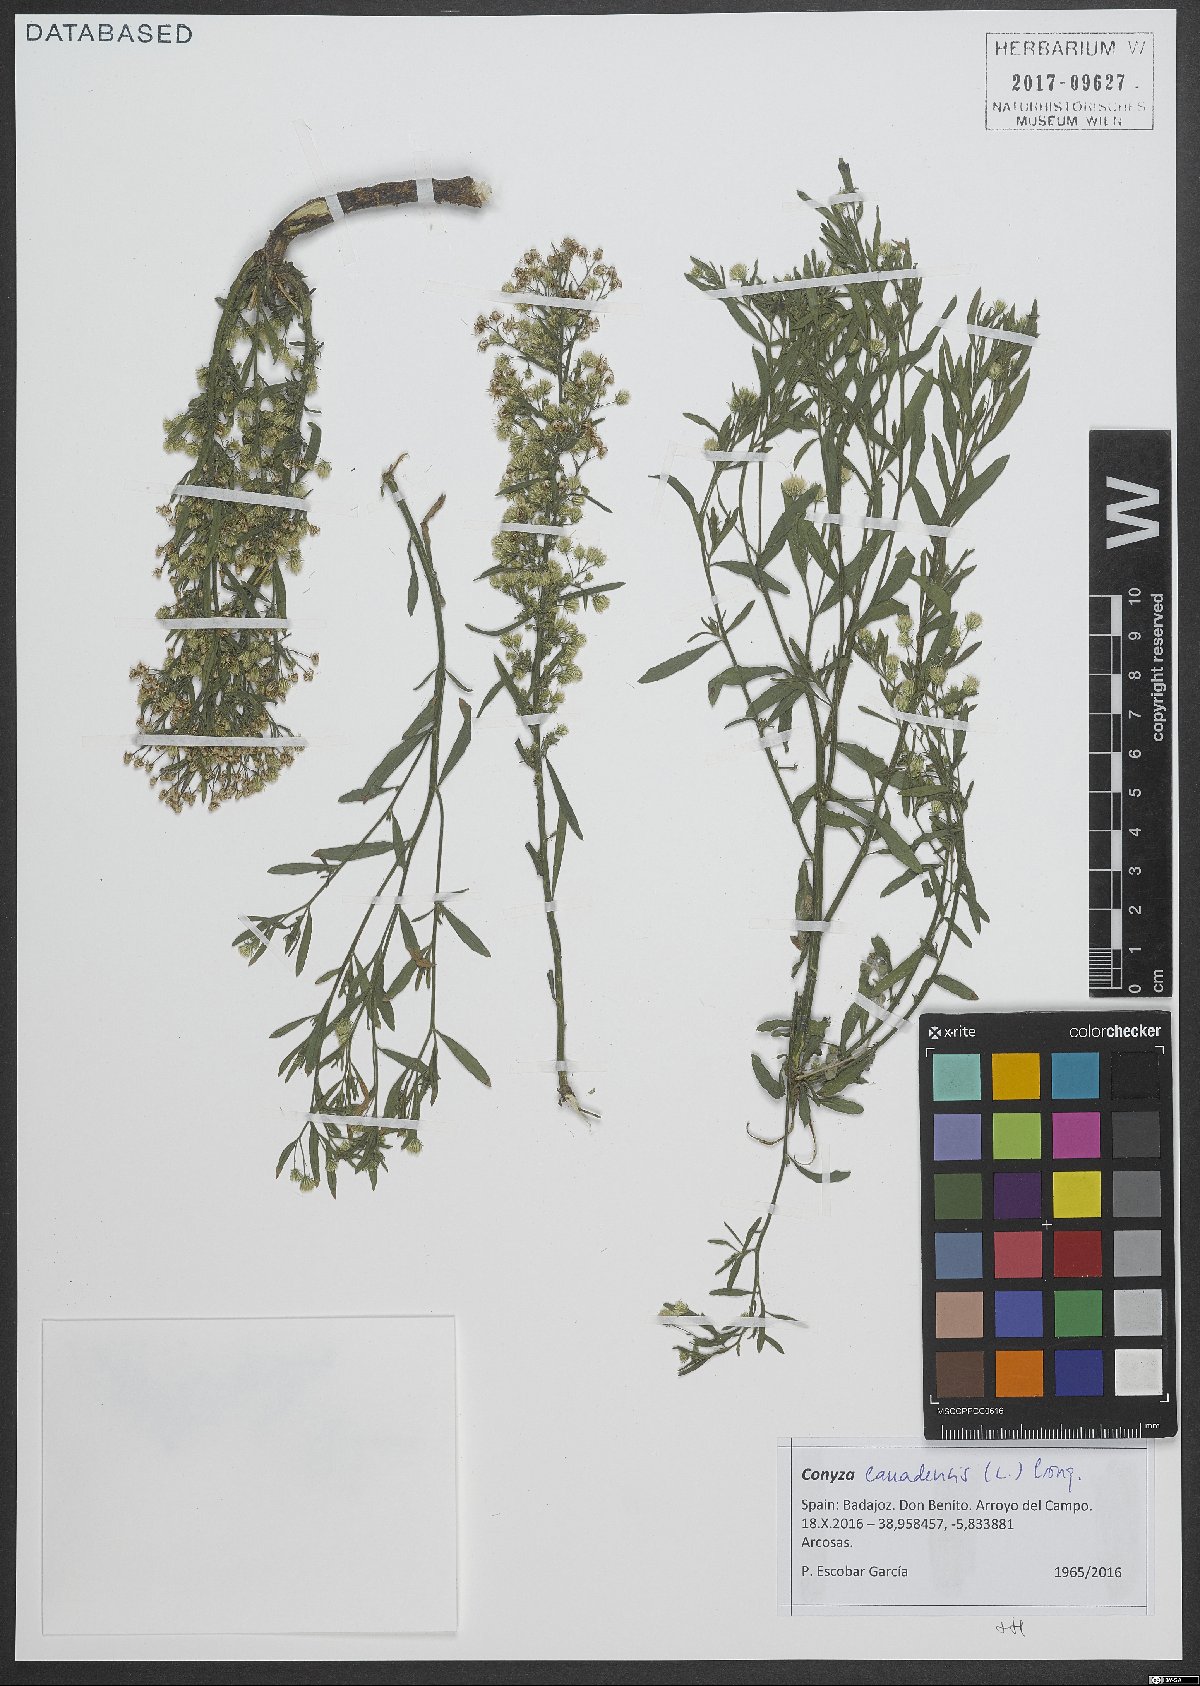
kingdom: Plantae
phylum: Tracheophyta
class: Magnoliopsida
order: Asterales
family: Asteraceae
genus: Erigeron
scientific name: Erigeron canadensis
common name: Canadian fleabane
